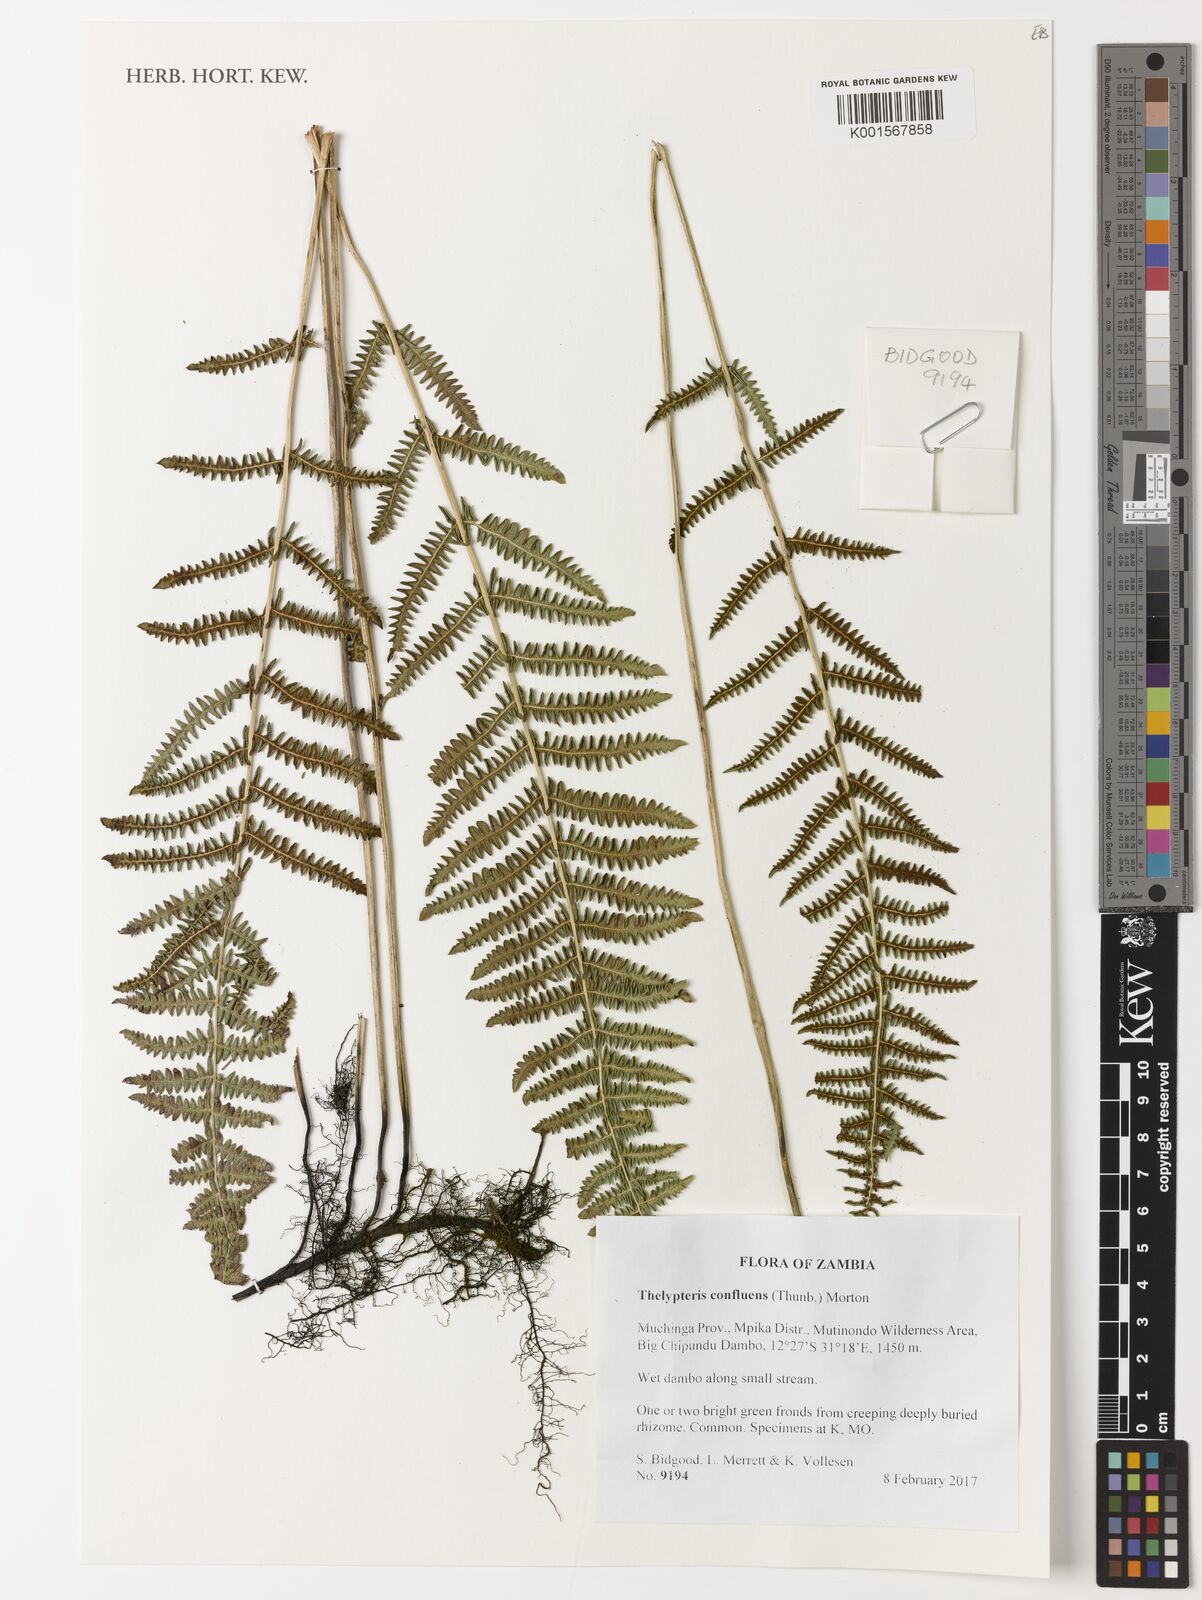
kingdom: Plantae
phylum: Tracheophyta
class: Polypodiopsida
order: Polypodiales
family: Thelypteridaceae
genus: Thelypteris
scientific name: Thelypteris confluens
